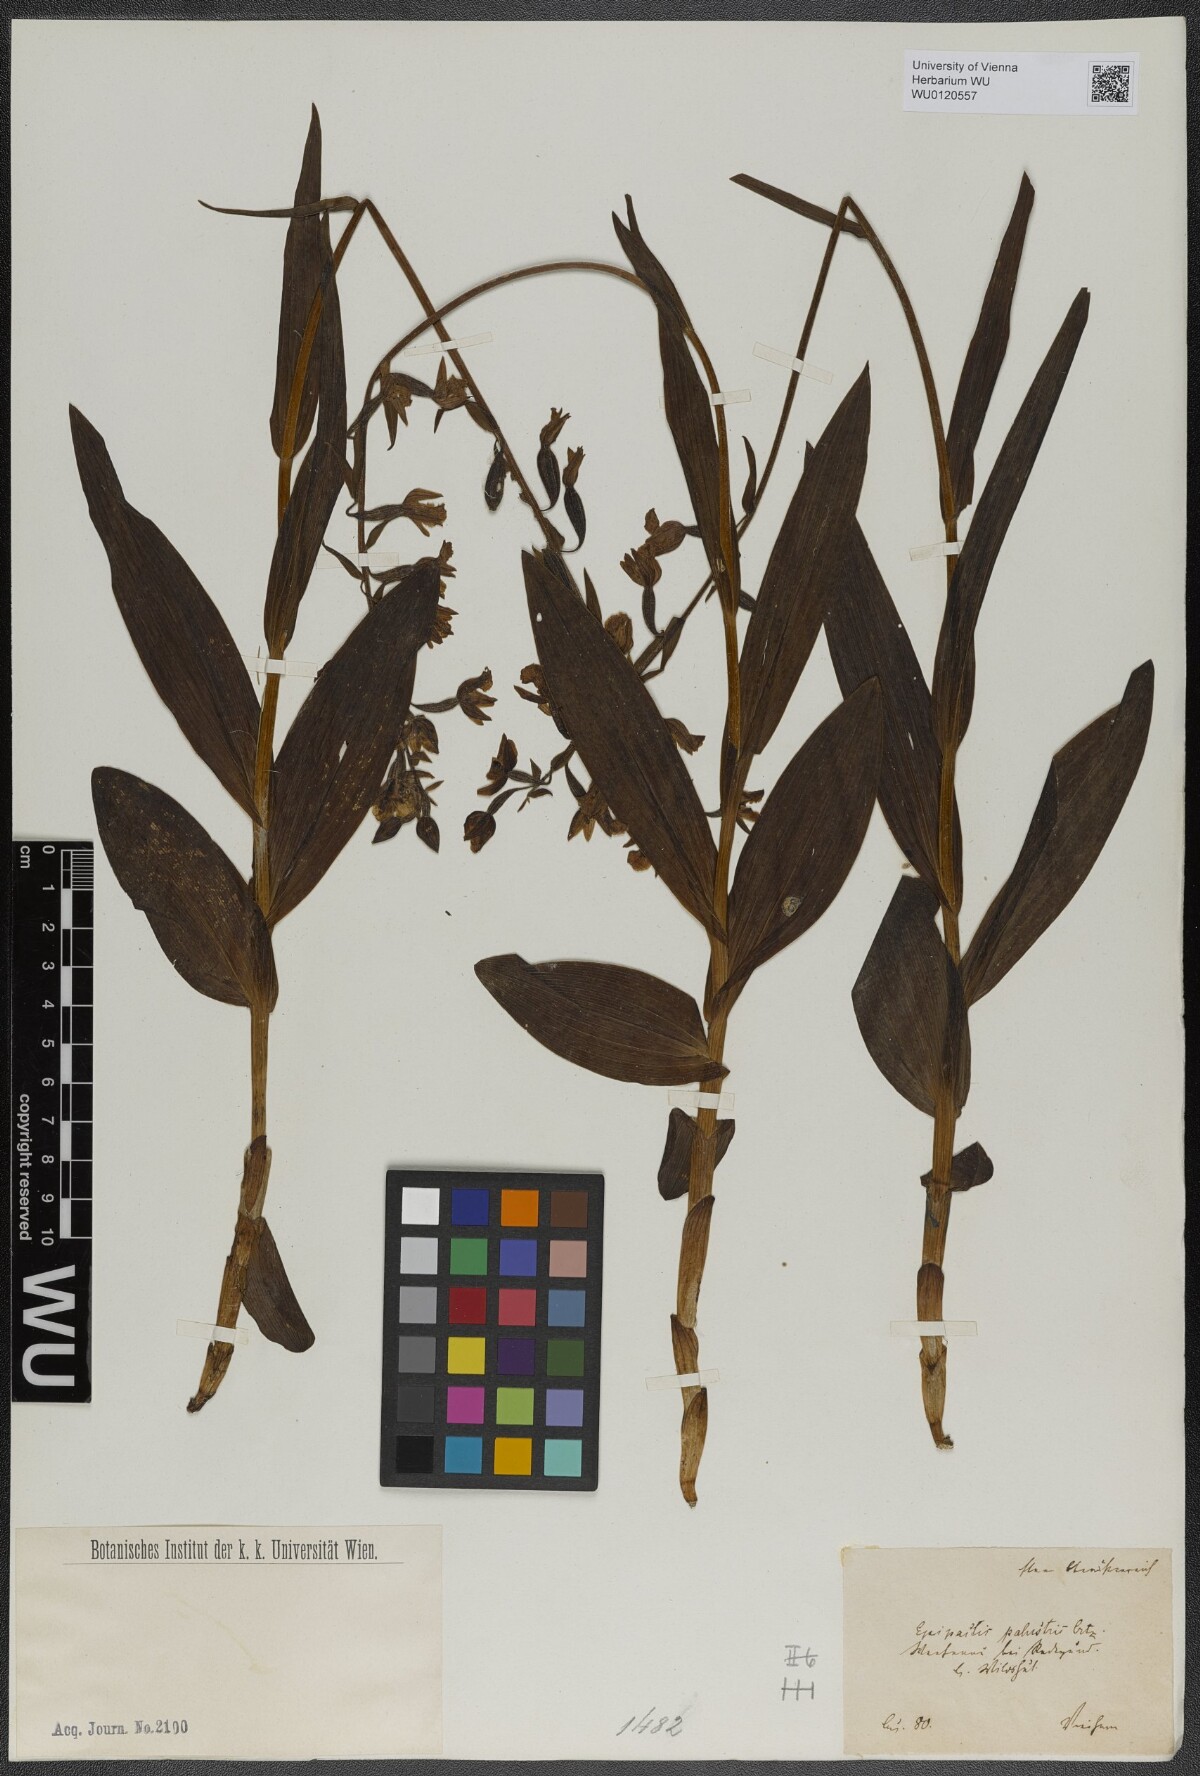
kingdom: Plantae
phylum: Tracheophyta
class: Liliopsida
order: Asparagales
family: Orchidaceae
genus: Epipactis
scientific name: Epipactis palustris
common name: Marsh helleborine
